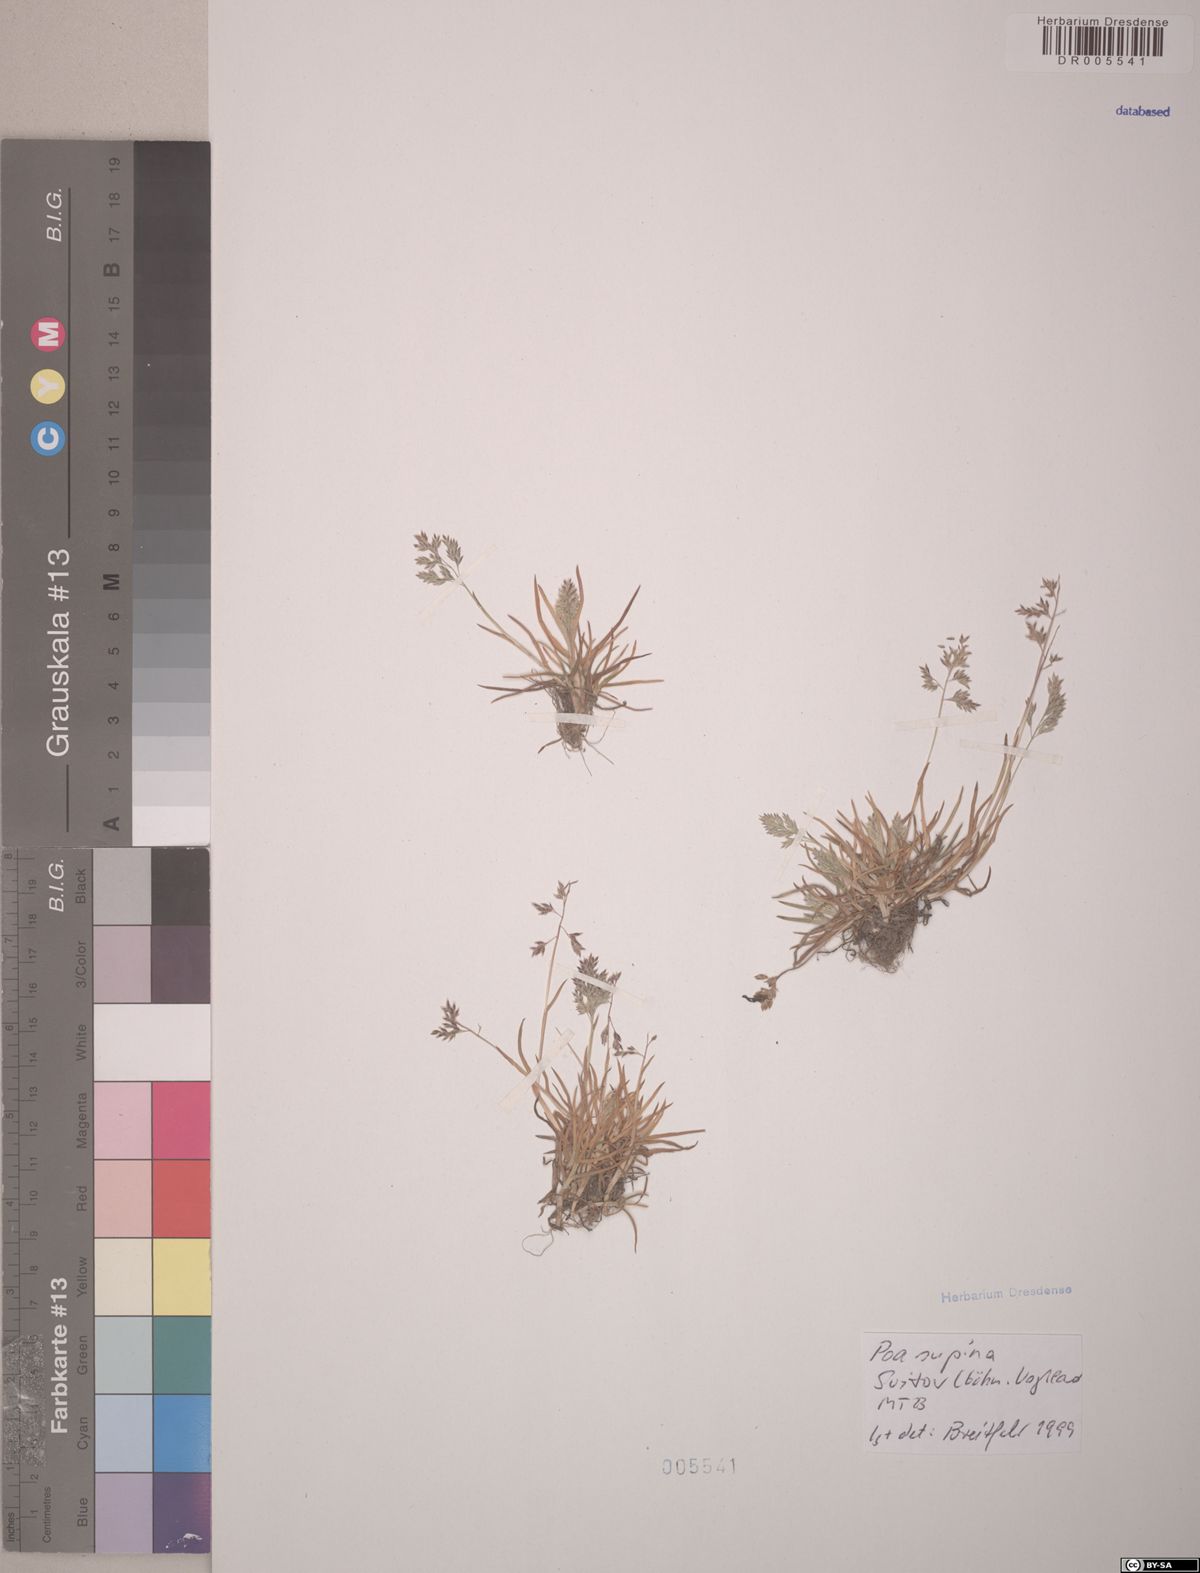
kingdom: Plantae
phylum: Tracheophyta
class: Liliopsida
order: Poales
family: Poaceae
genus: Poa
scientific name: Poa supina
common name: Supina bluegrass
